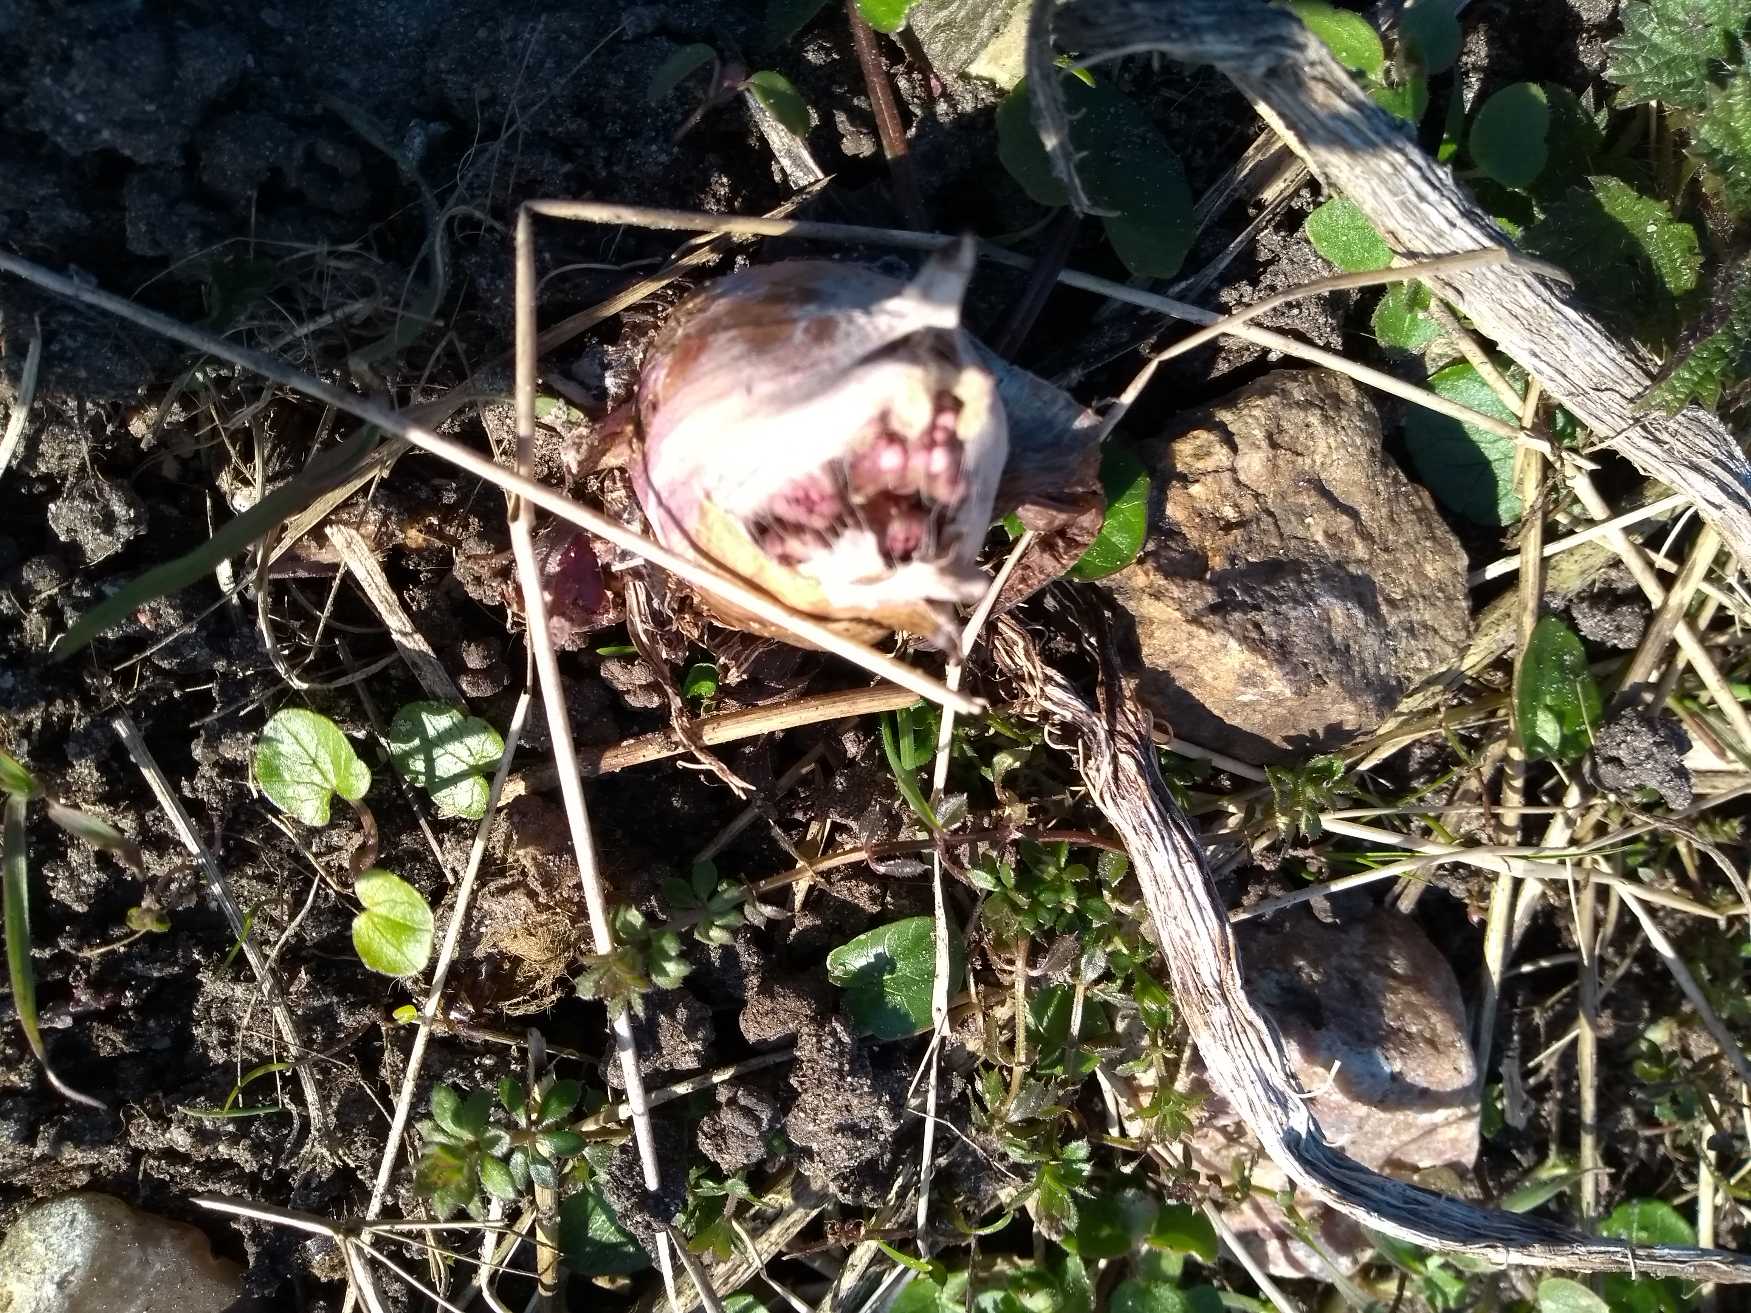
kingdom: Plantae
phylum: Tracheophyta
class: Magnoliopsida
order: Asterales
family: Asteraceae
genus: Petasites
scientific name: Petasites hybridus
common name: Rød hestehov
